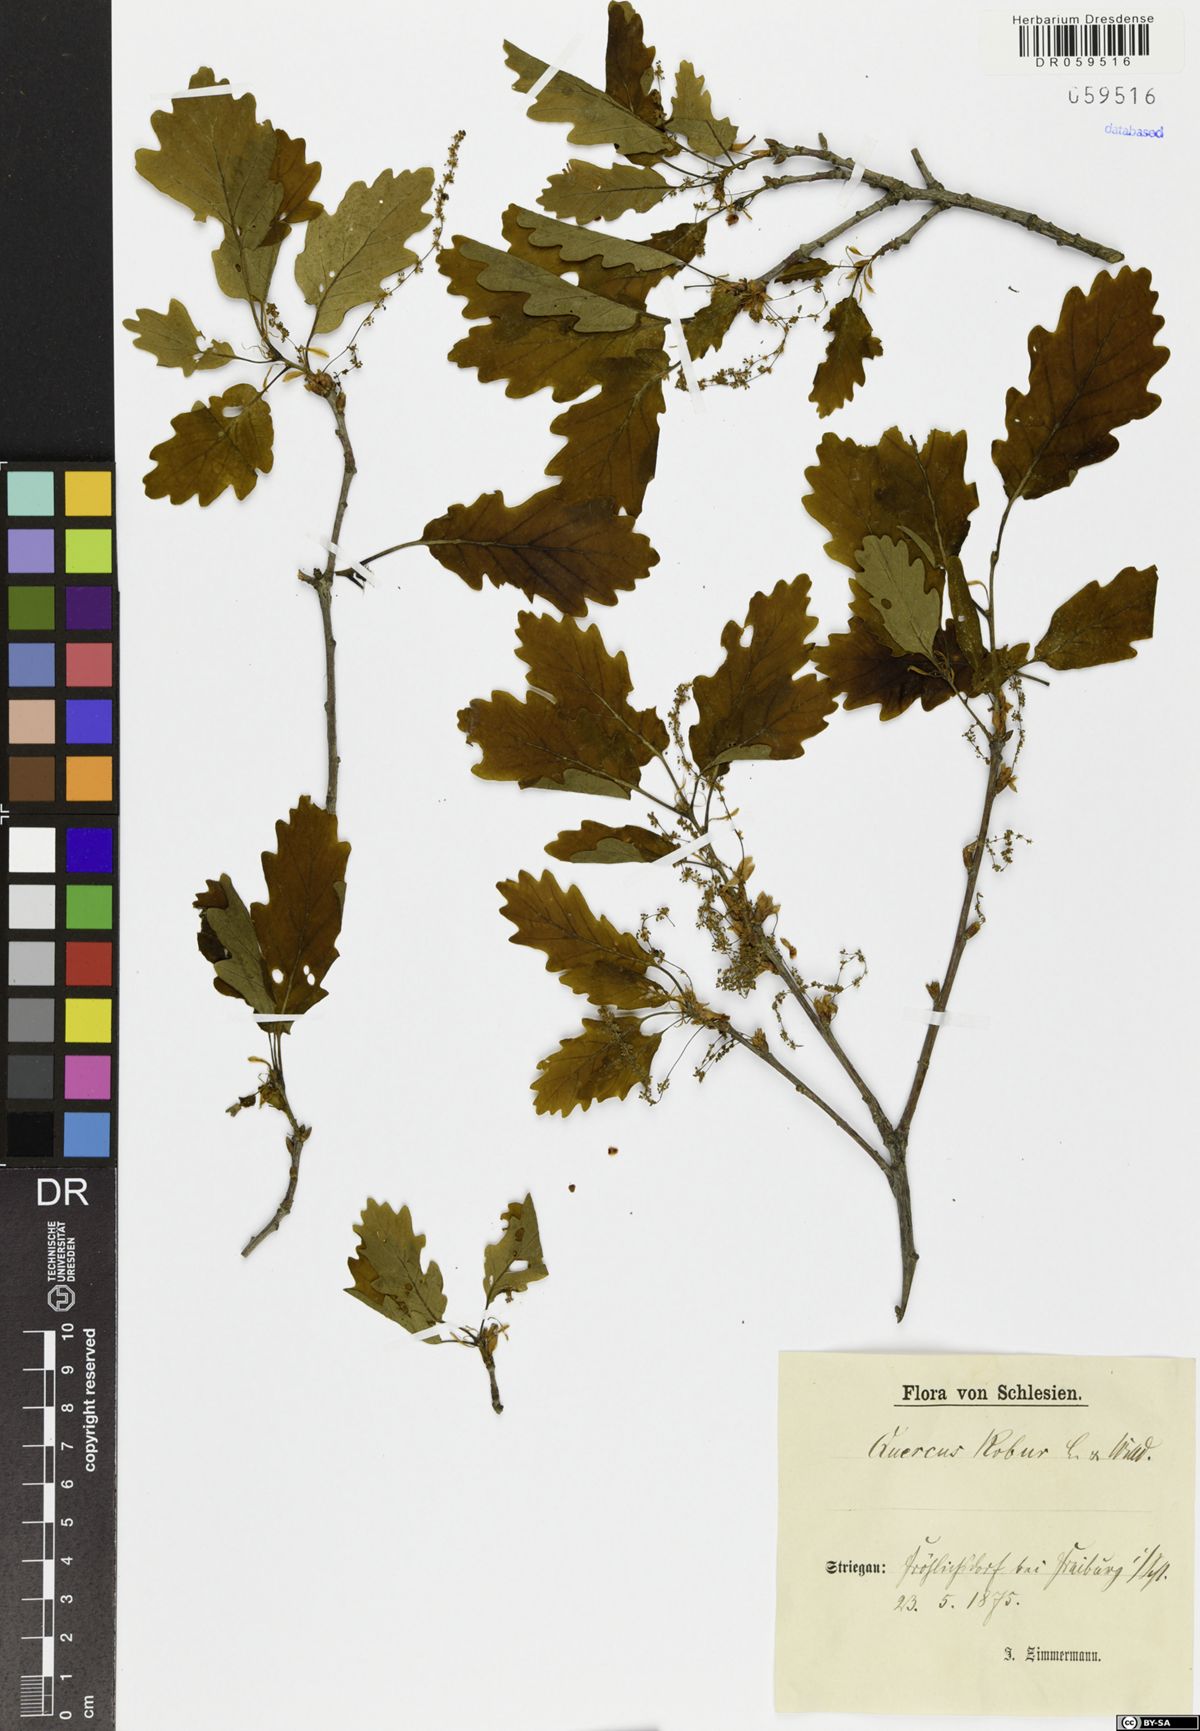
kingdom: Plantae
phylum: Tracheophyta
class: Magnoliopsida
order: Fagales
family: Fagaceae
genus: Quercus
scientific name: Quercus robur
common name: Pedunculate oak
